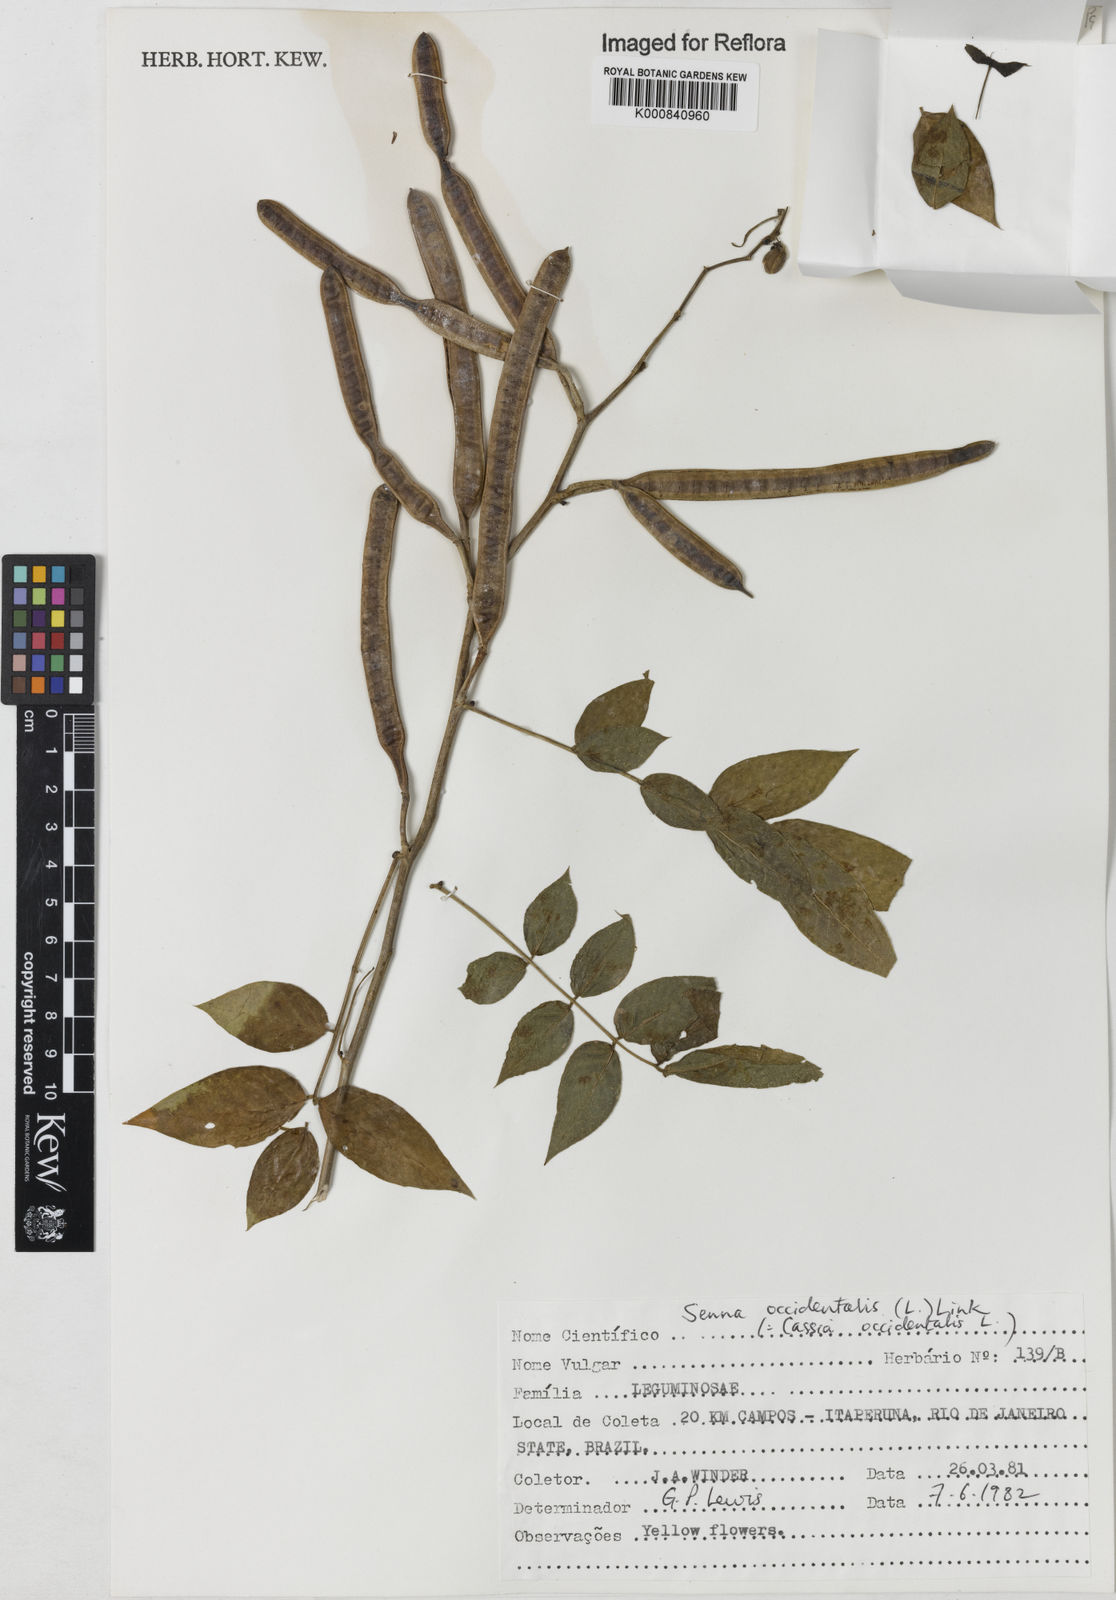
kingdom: Plantae
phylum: Tracheophyta
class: Magnoliopsida
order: Fabales
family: Fabaceae
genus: Senna
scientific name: Senna occidentalis
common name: Septicweed
